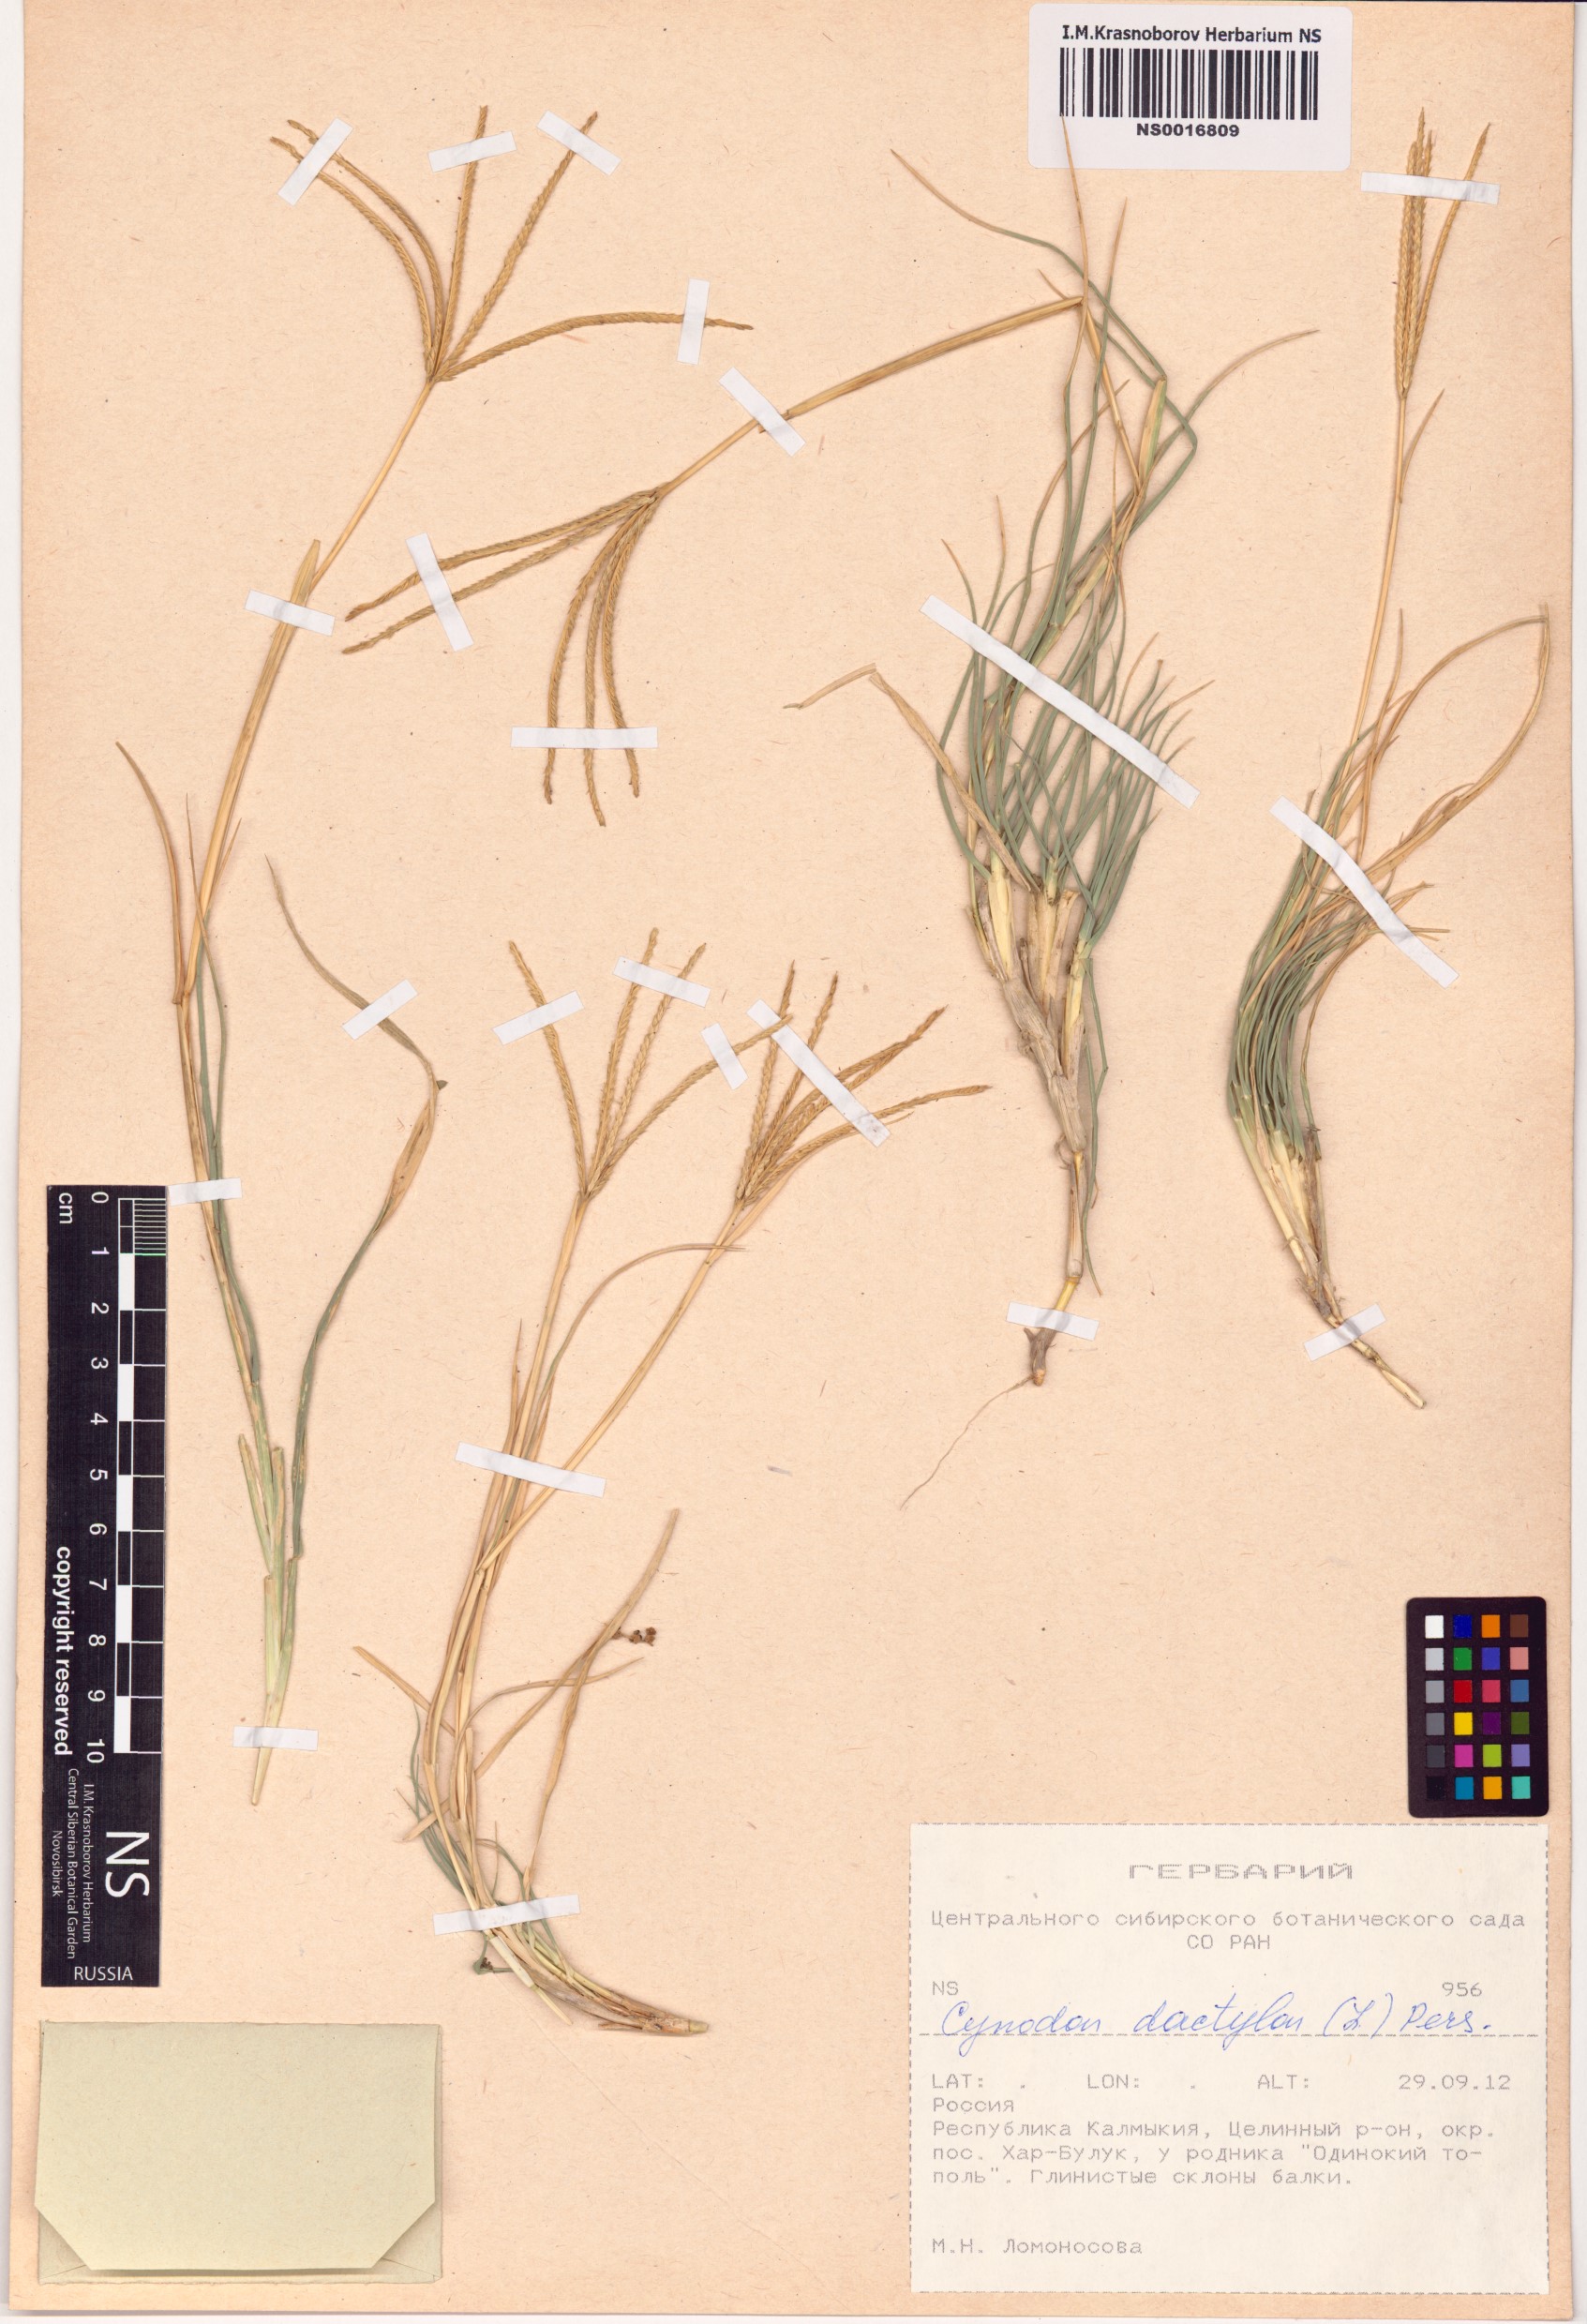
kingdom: Plantae
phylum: Tracheophyta
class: Liliopsida
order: Poales
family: Poaceae
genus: Cynodon
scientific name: Cynodon dactylon
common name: Bermuda grass
